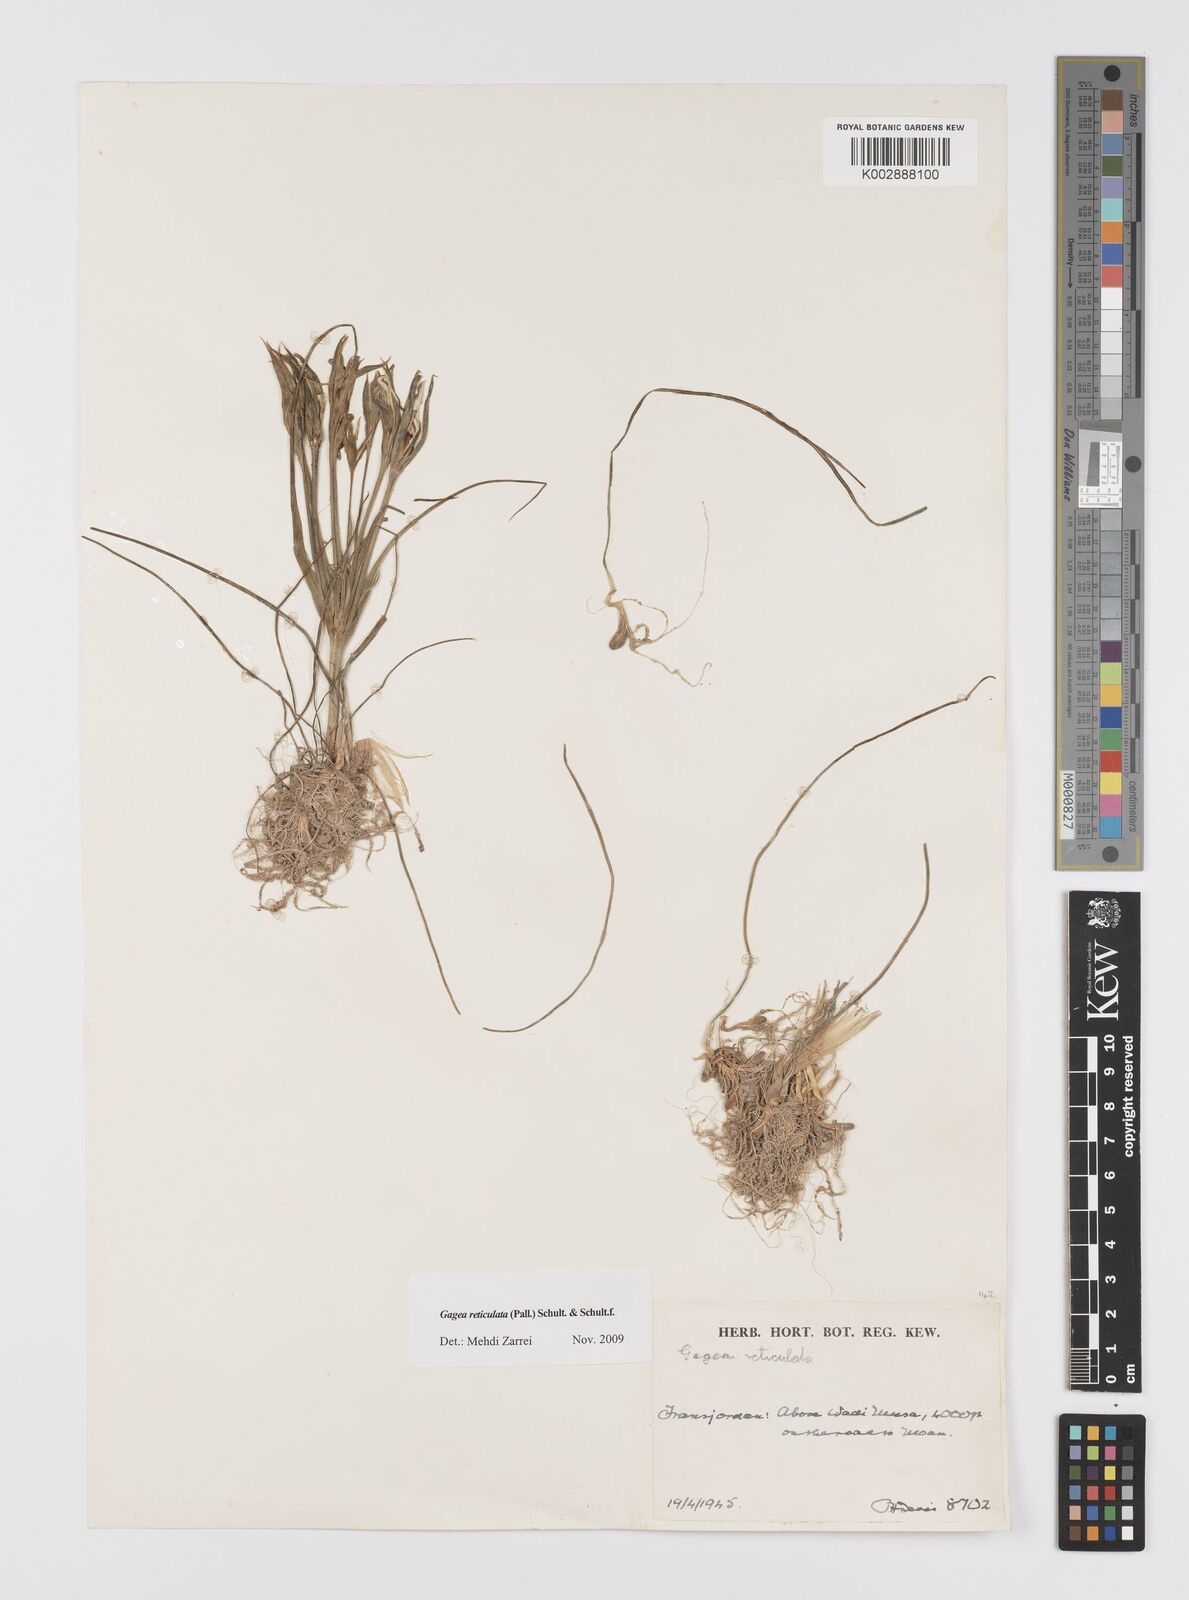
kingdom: Plantae
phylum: Tracheophyta
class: Liliopsida
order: Liliales
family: Liliaceae
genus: Gagea
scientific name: Gagea reticulata
